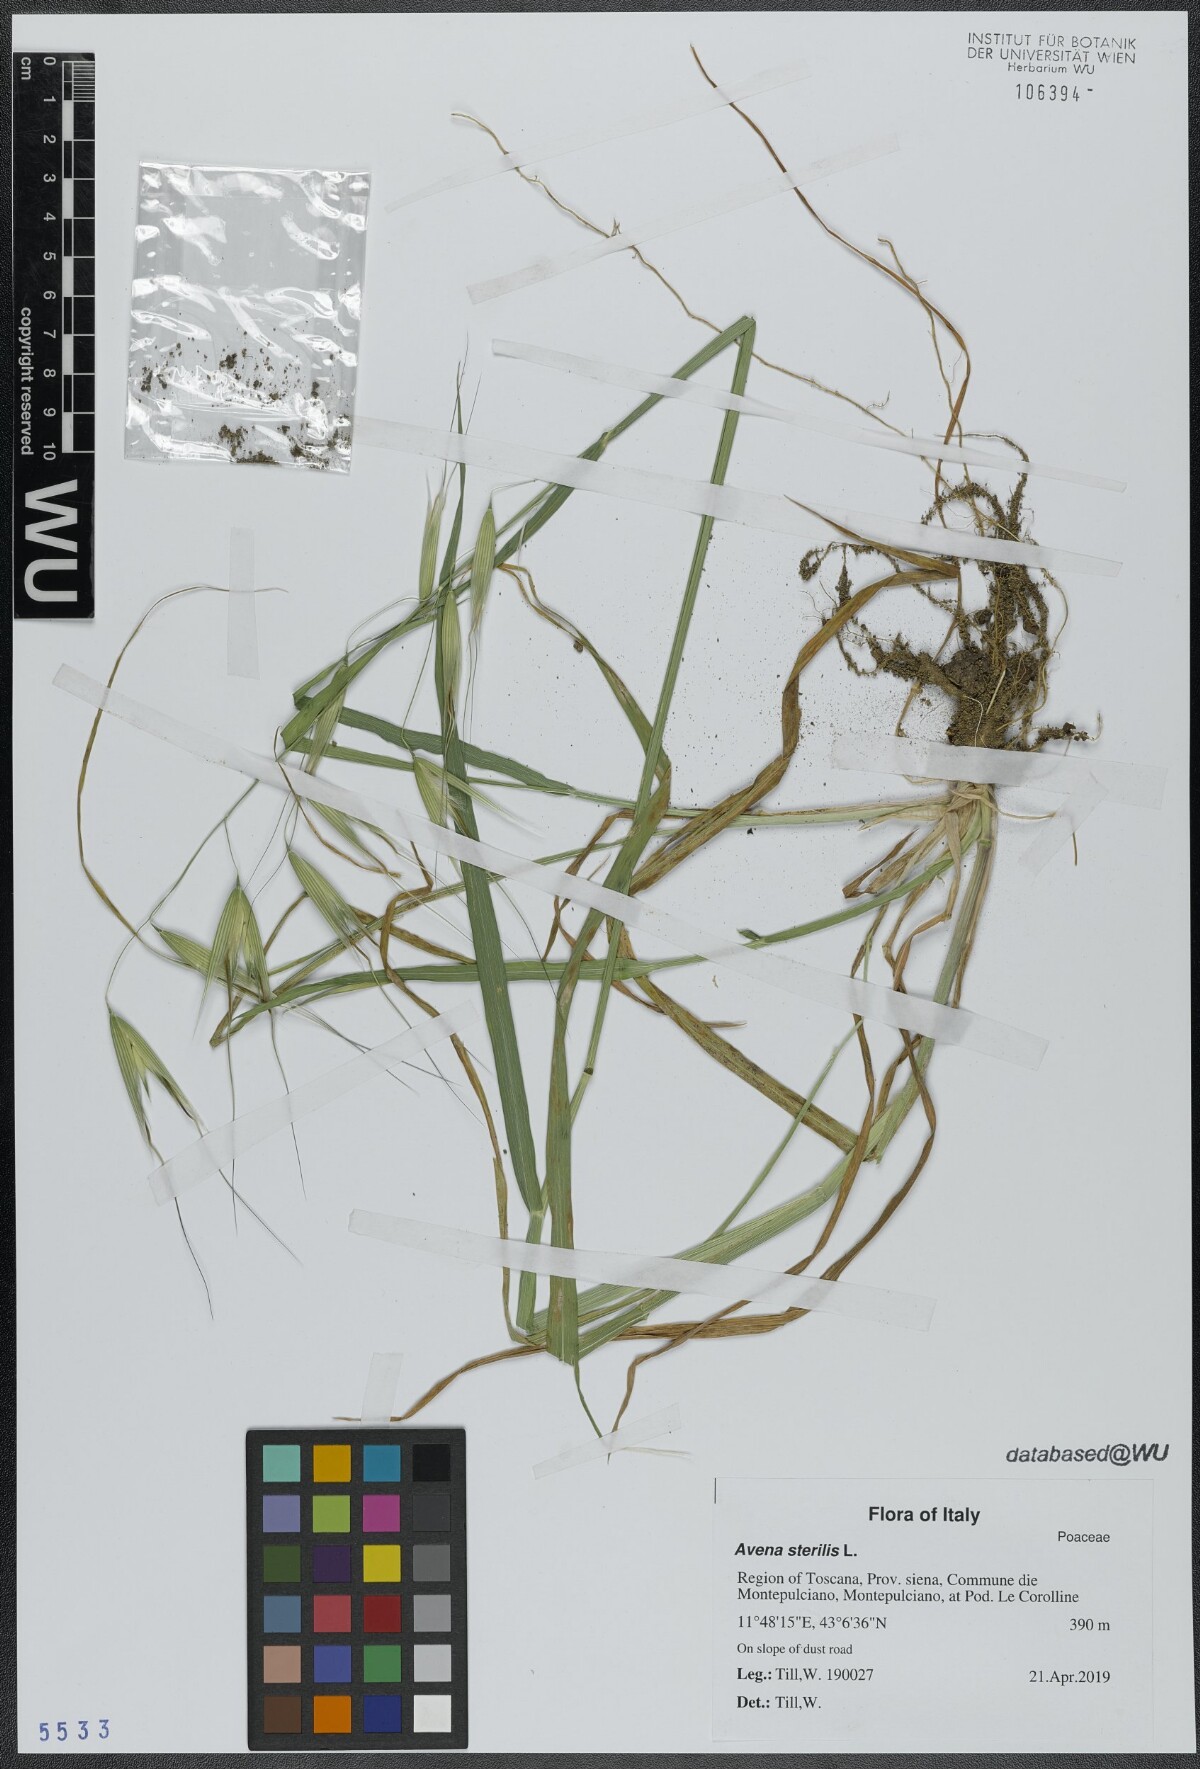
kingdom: Plantae
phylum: Tracheophyta
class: Liliopsida
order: Poales
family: Poaceae
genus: Avena
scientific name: Avena sterilis
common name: Animated oat
